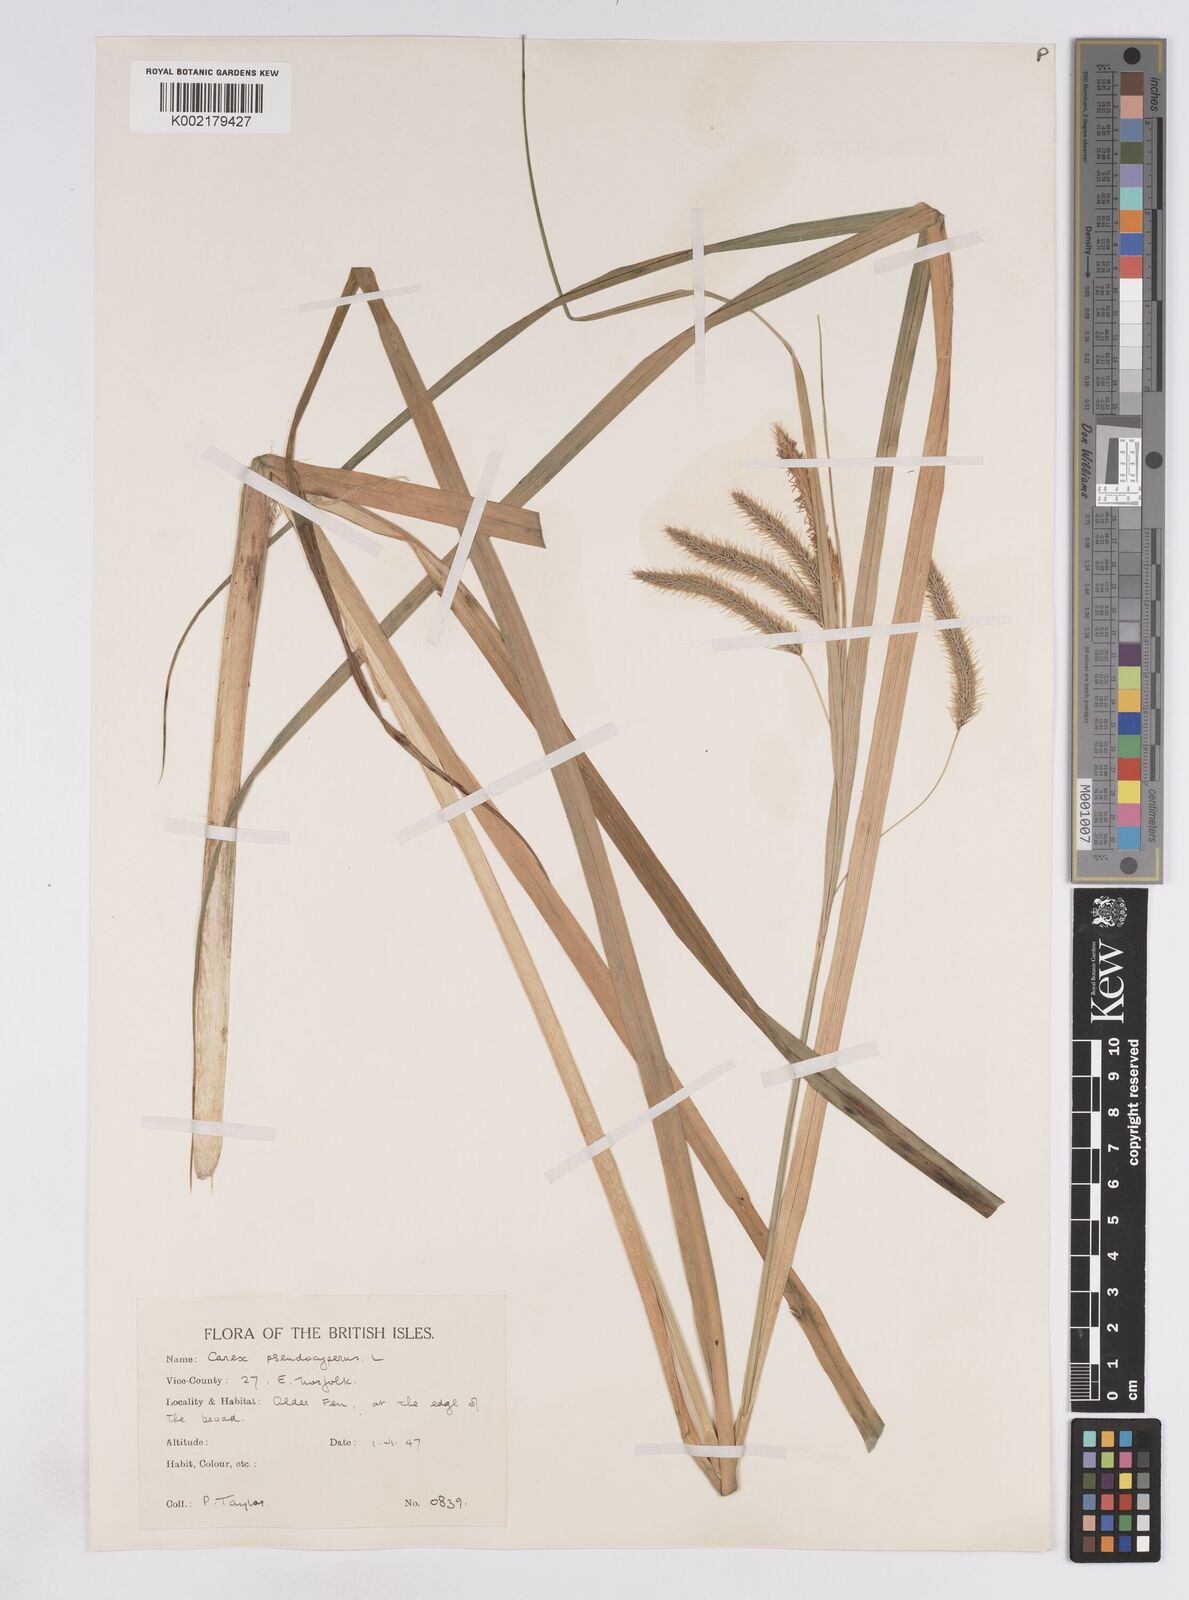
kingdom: Plantae
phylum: Tracheophyta
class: Liliopsida
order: Poales
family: Cyperaceae
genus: Carex
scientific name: Carex pseudocyperus
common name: Cyperus sedge
